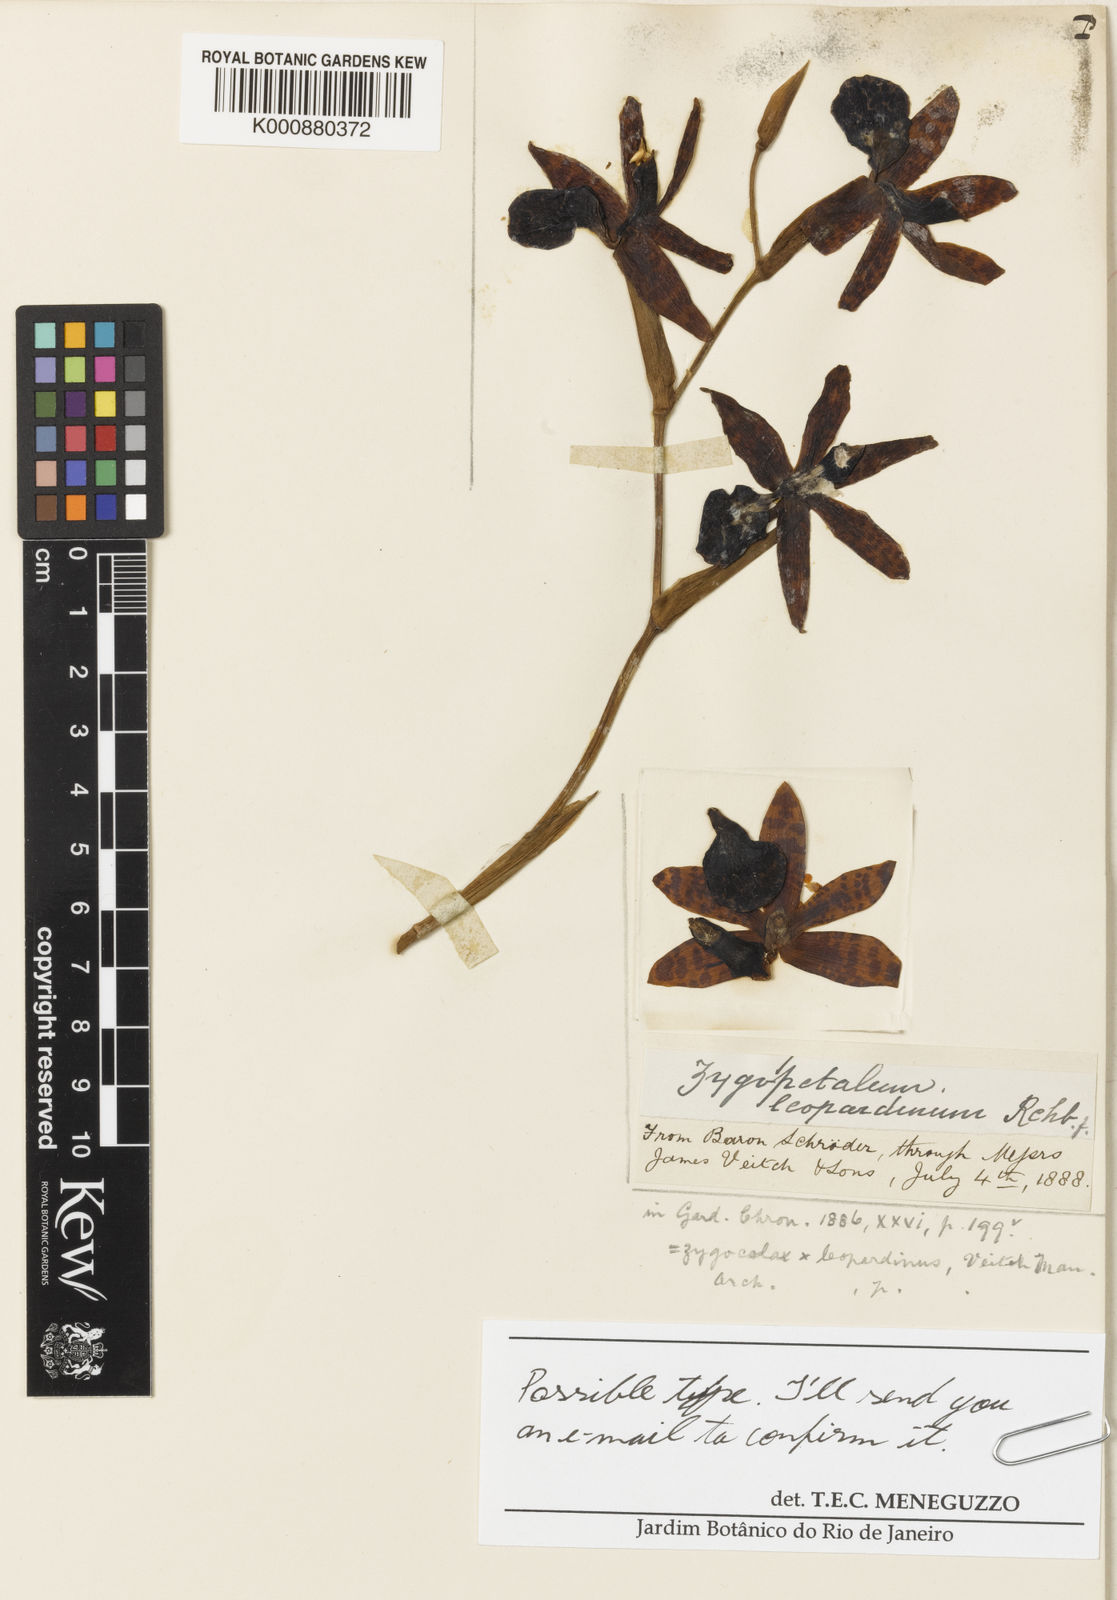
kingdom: Plantae
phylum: Tracheophyta
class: Liliopsida
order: Asparagales
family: Orchidaceae
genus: Zygocolax
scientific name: Zygocolax leopardinum
